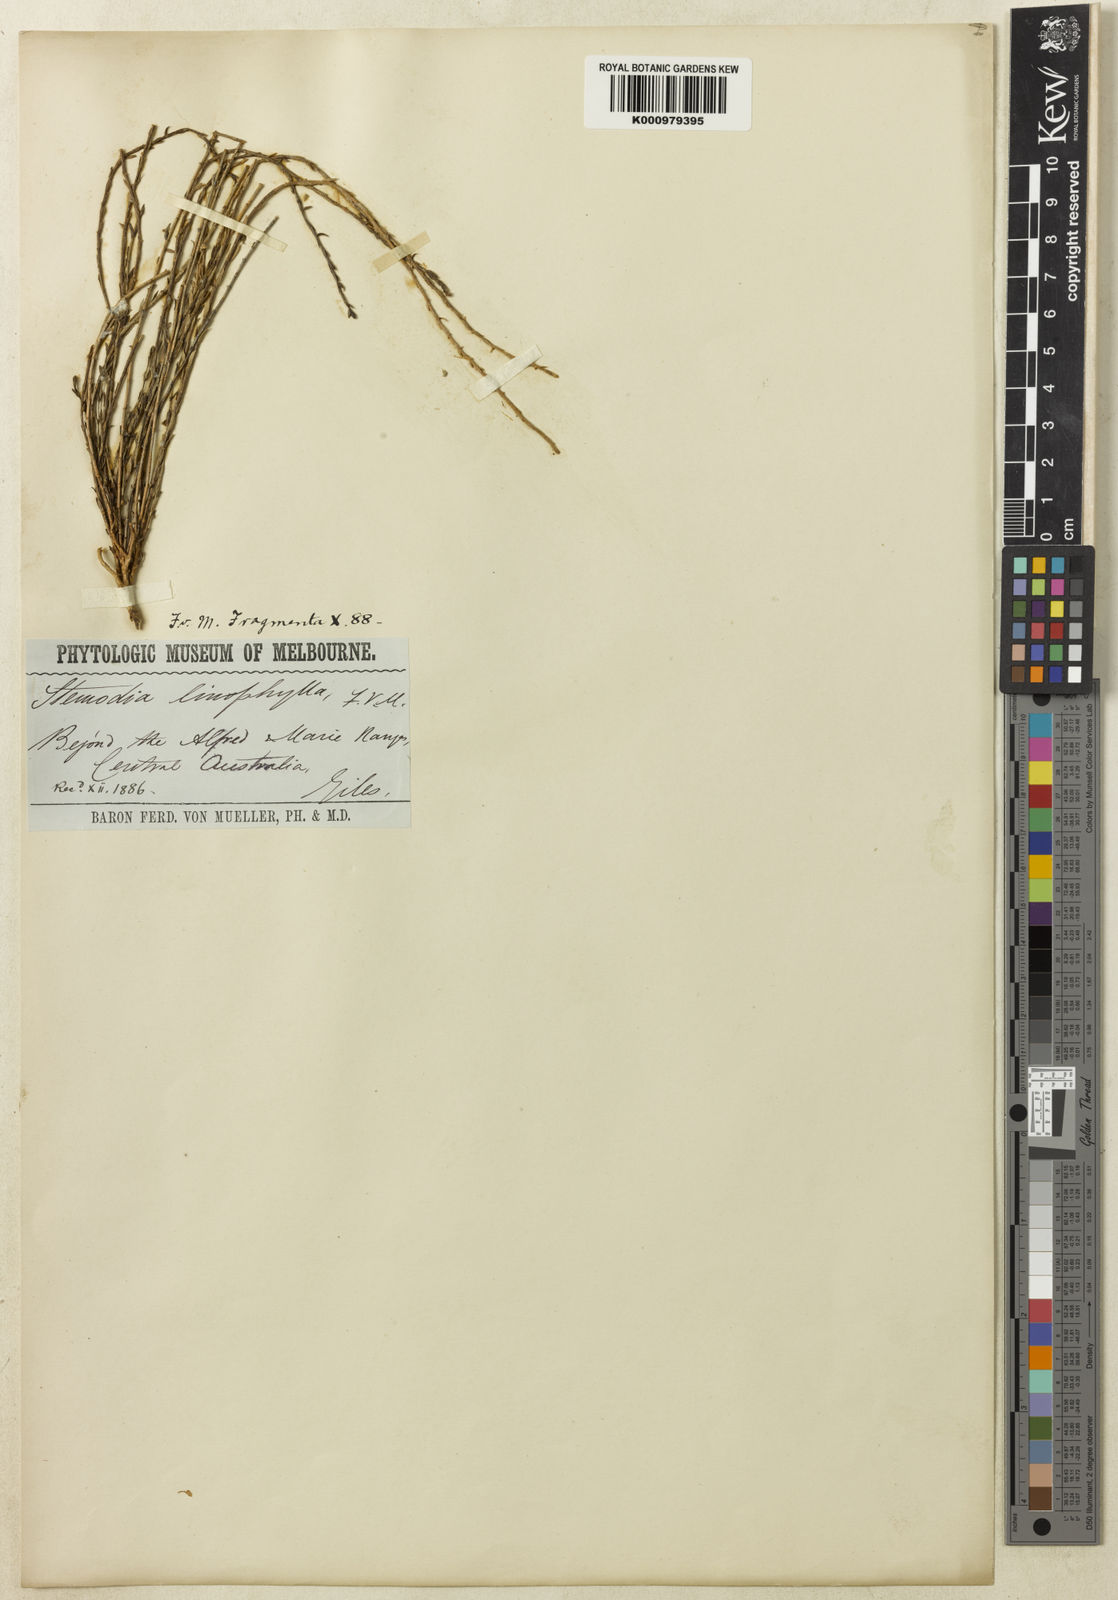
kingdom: Plantae
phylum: Tracheophyta
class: Magnoliopsida
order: Lamiales
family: Plantaginaceae
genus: Stemodia
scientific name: Stemodia linophylla
